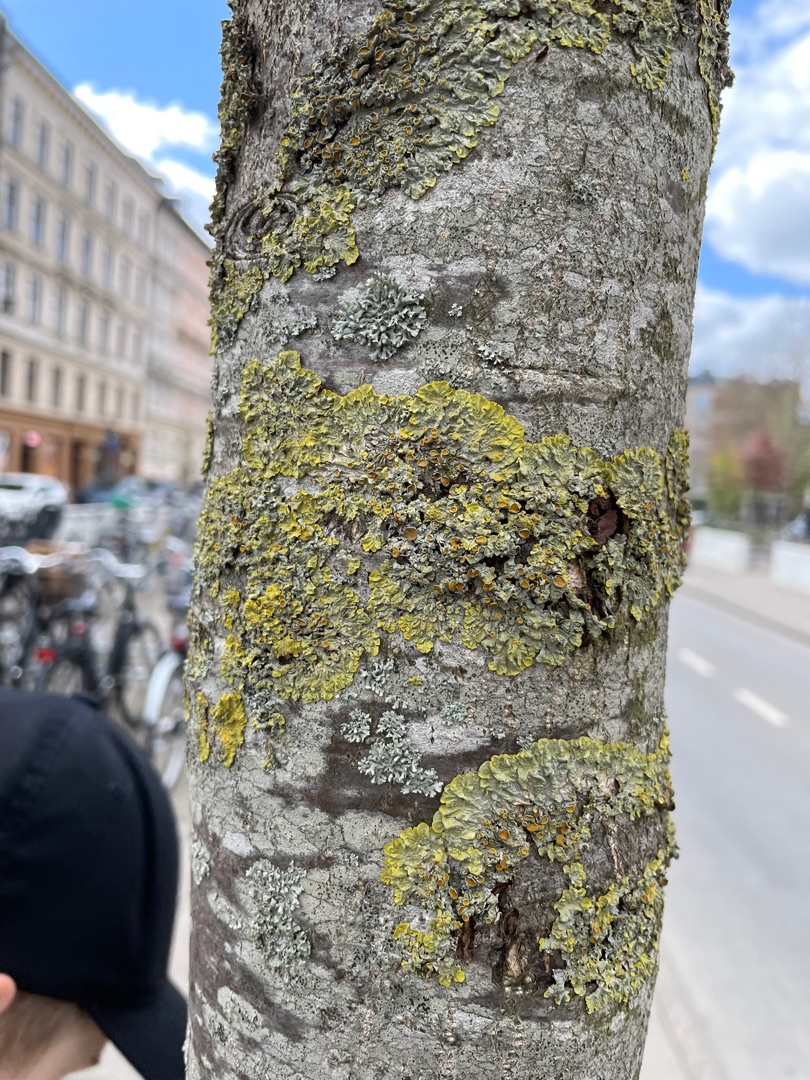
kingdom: Fungi
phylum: Ascomycota
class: Lecanoromycetes
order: Teloschistales
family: Teloschistaceae
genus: Xanthoria
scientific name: Xanthoria parietina
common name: Almindelig væggelav
